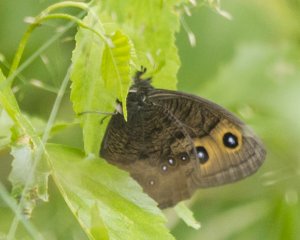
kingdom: Animalia
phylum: Arthropoda
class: Insecta
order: Lepidoptera
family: Nymphalidae
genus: Cercyonis
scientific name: Cercyonis pegala
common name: Common Wood-Nymph
